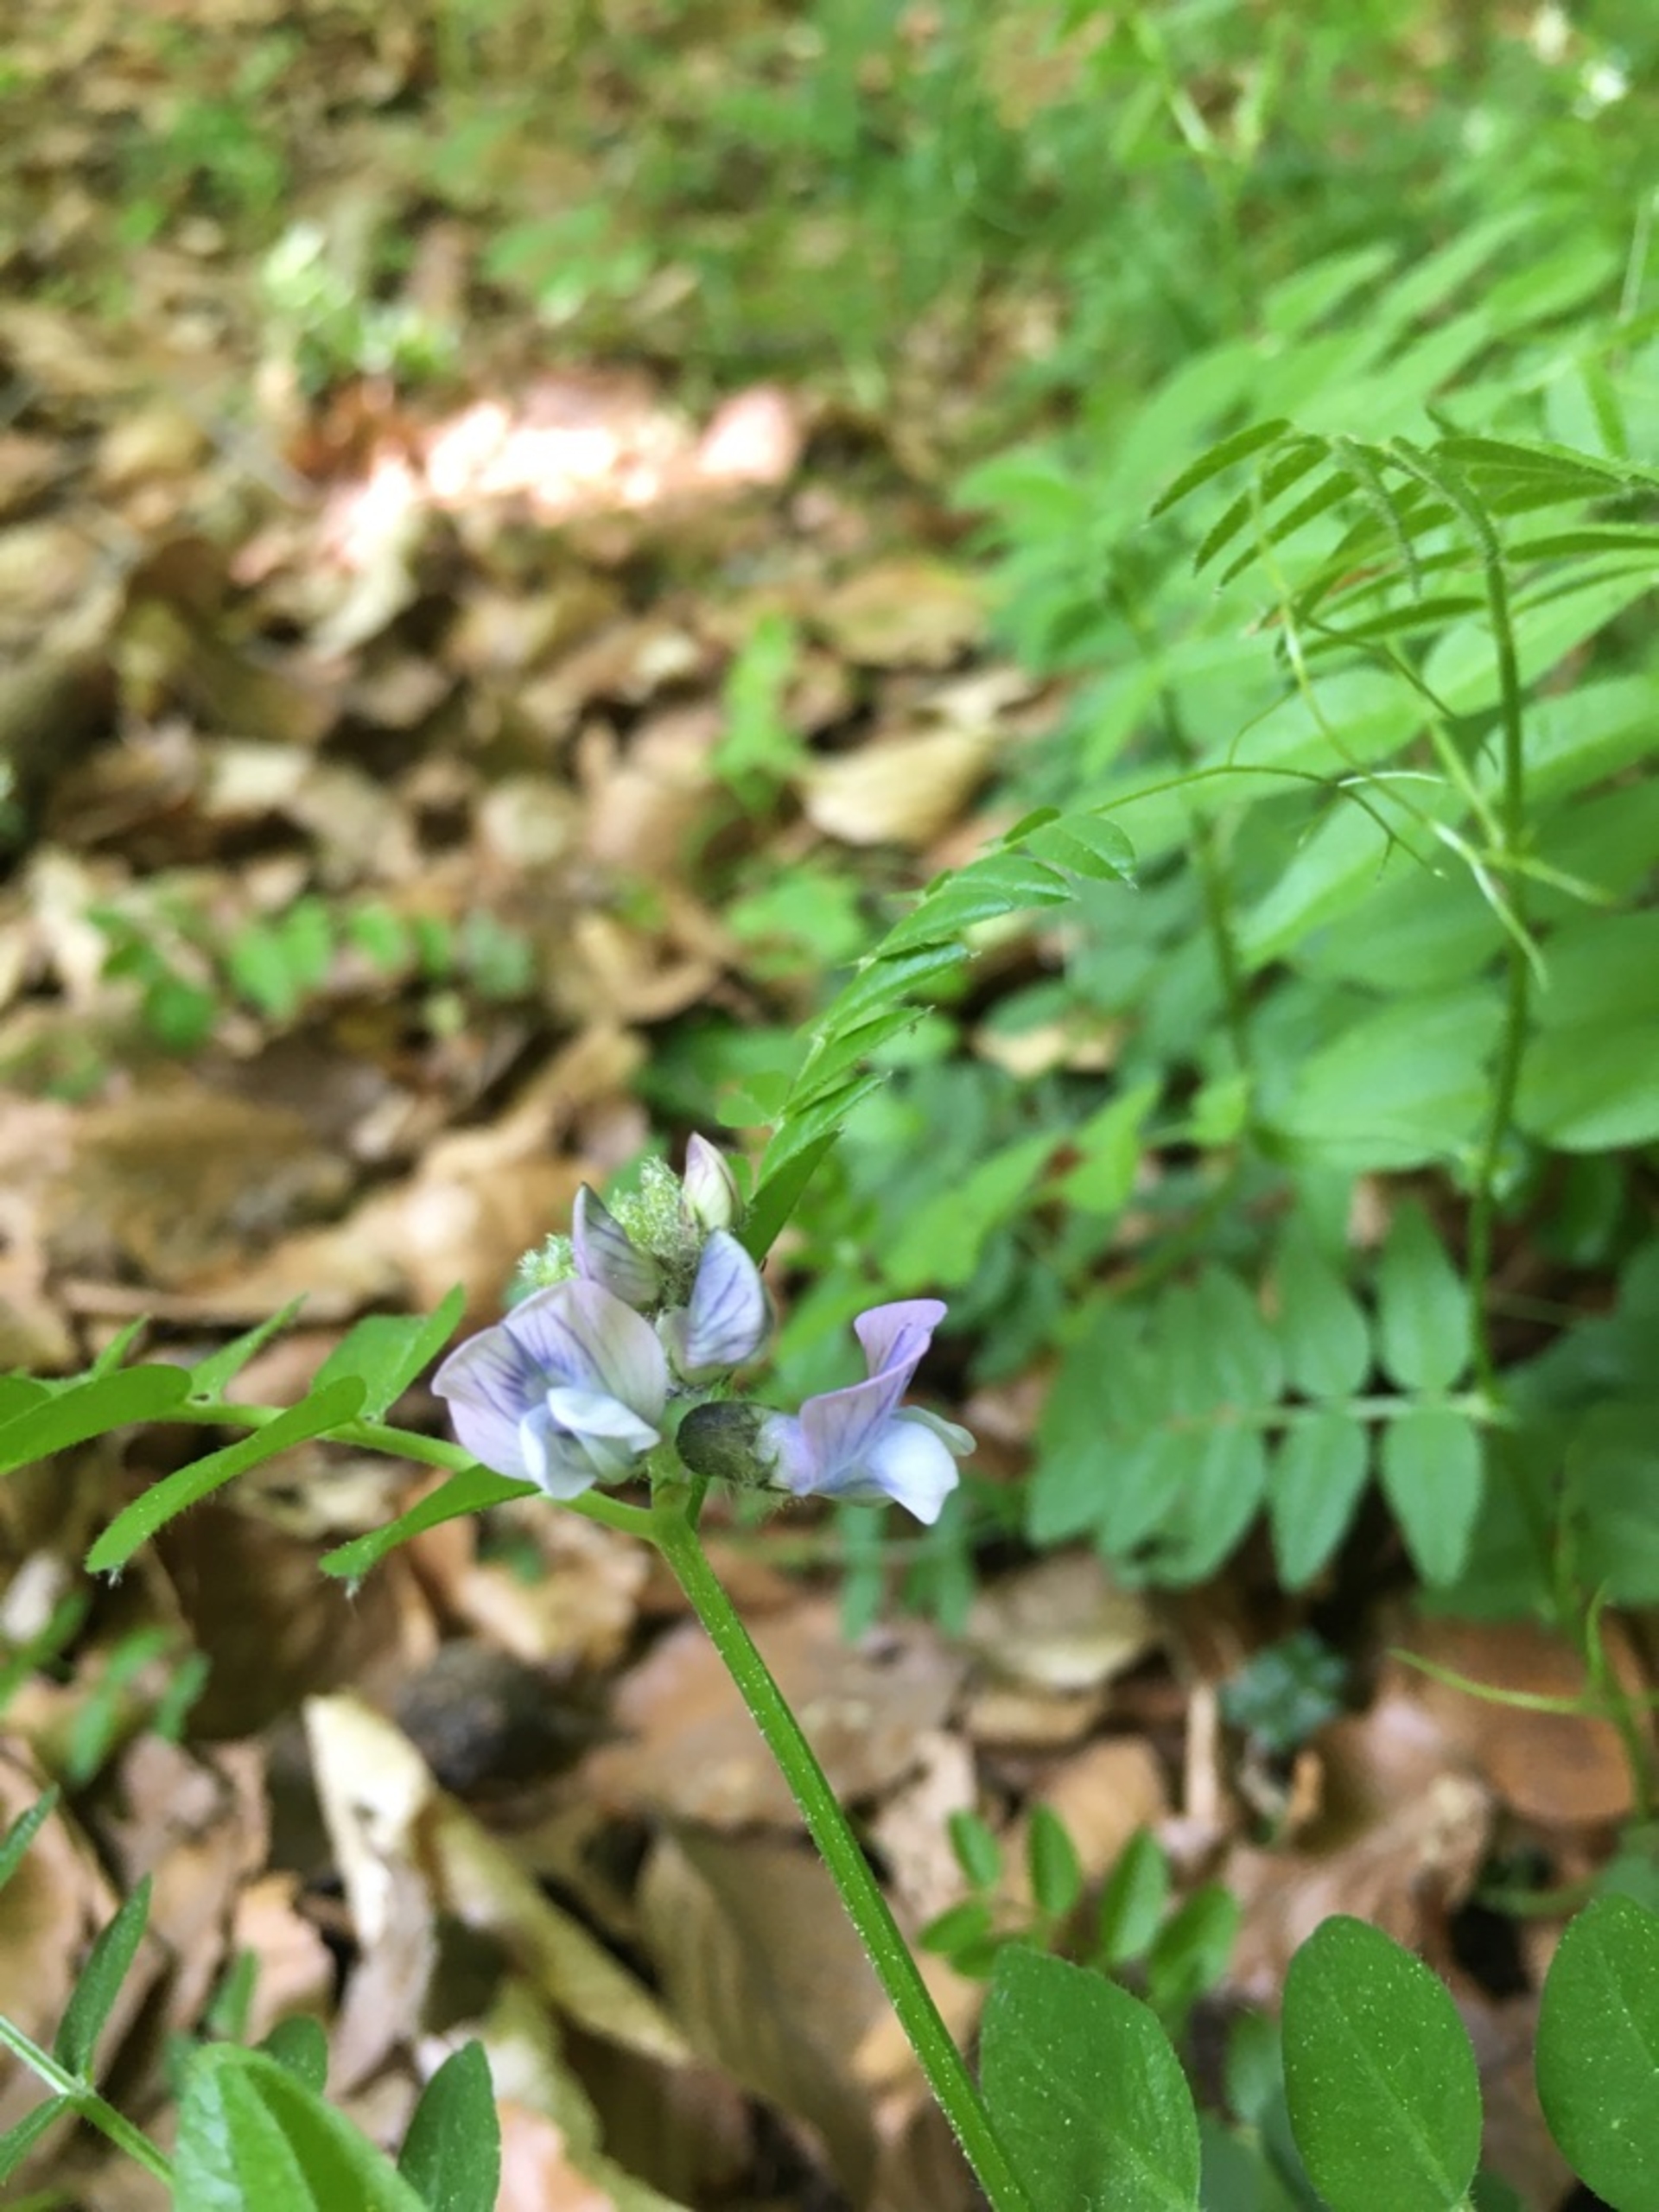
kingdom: Plantae
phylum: Tracheophyta
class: Magnoliopsida
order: Fabales
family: Fabaceae
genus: Vicia
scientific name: Vicia sylvatica
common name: Skov-vikke
